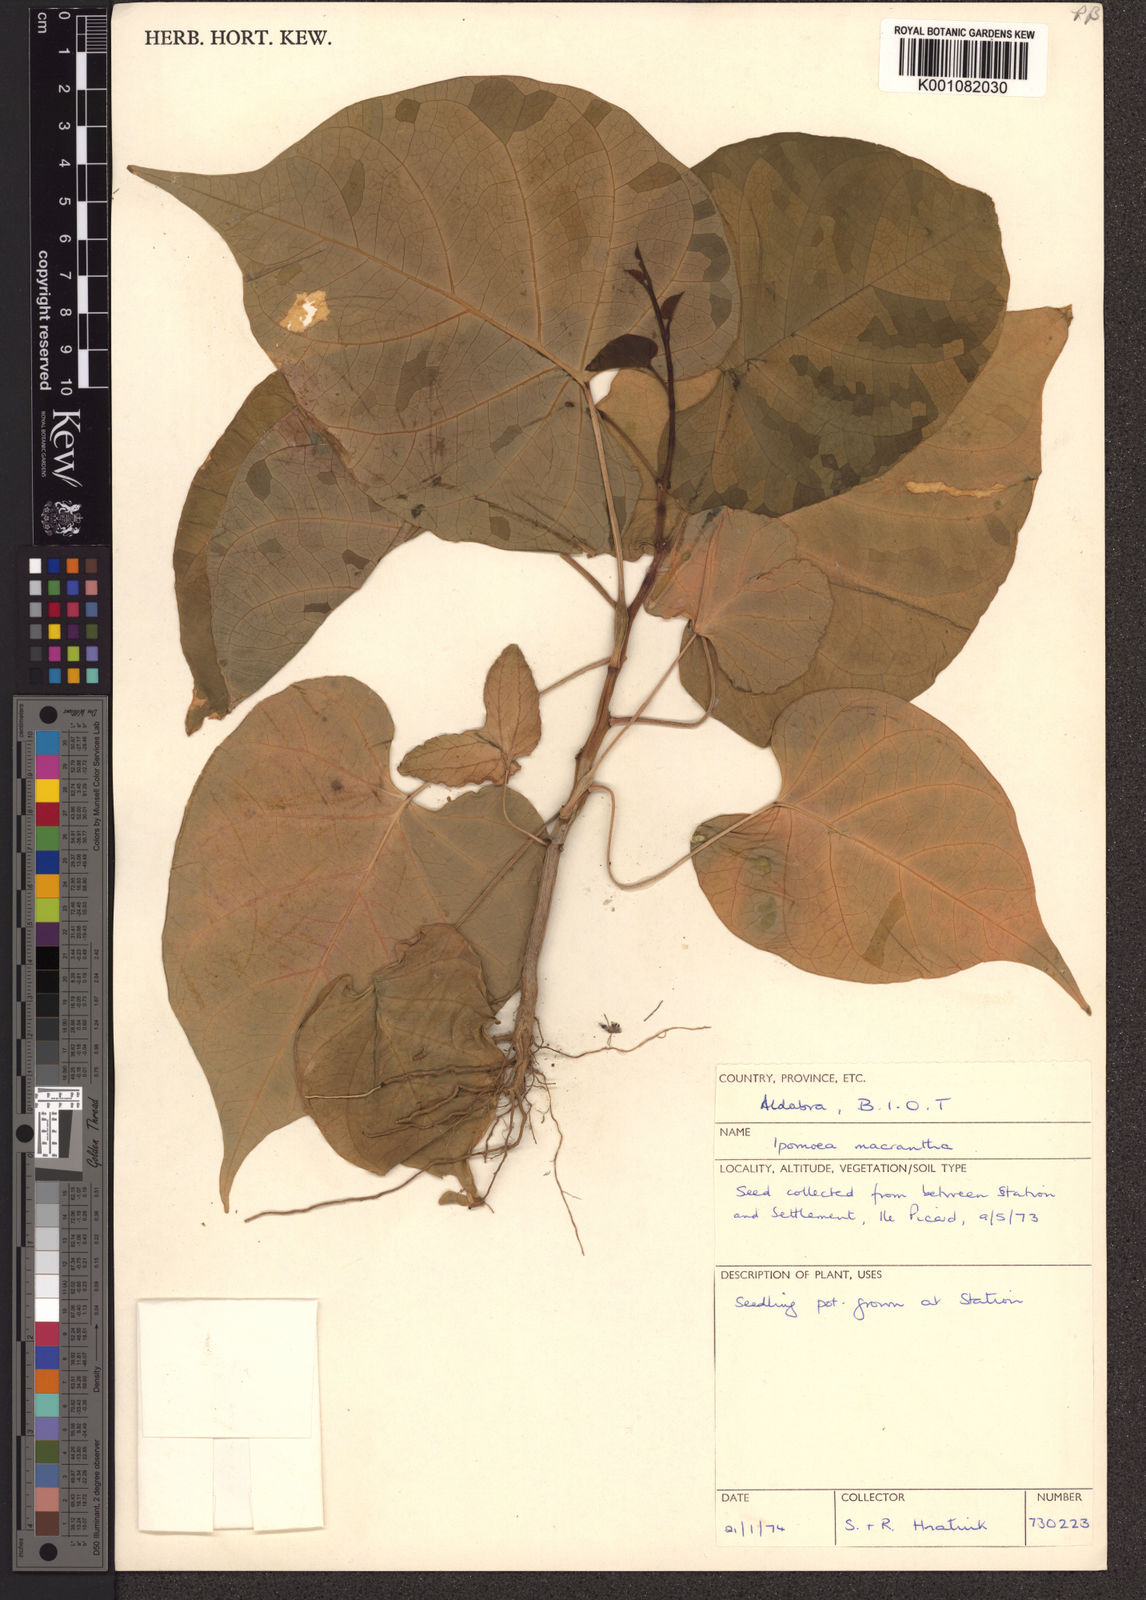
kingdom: Plantae
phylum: Tracheophyta
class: Magnoliopsida
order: Solanales
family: Convolvulaceae
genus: Ipomoea
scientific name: Ipomoea violacea
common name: Beach moonflower
